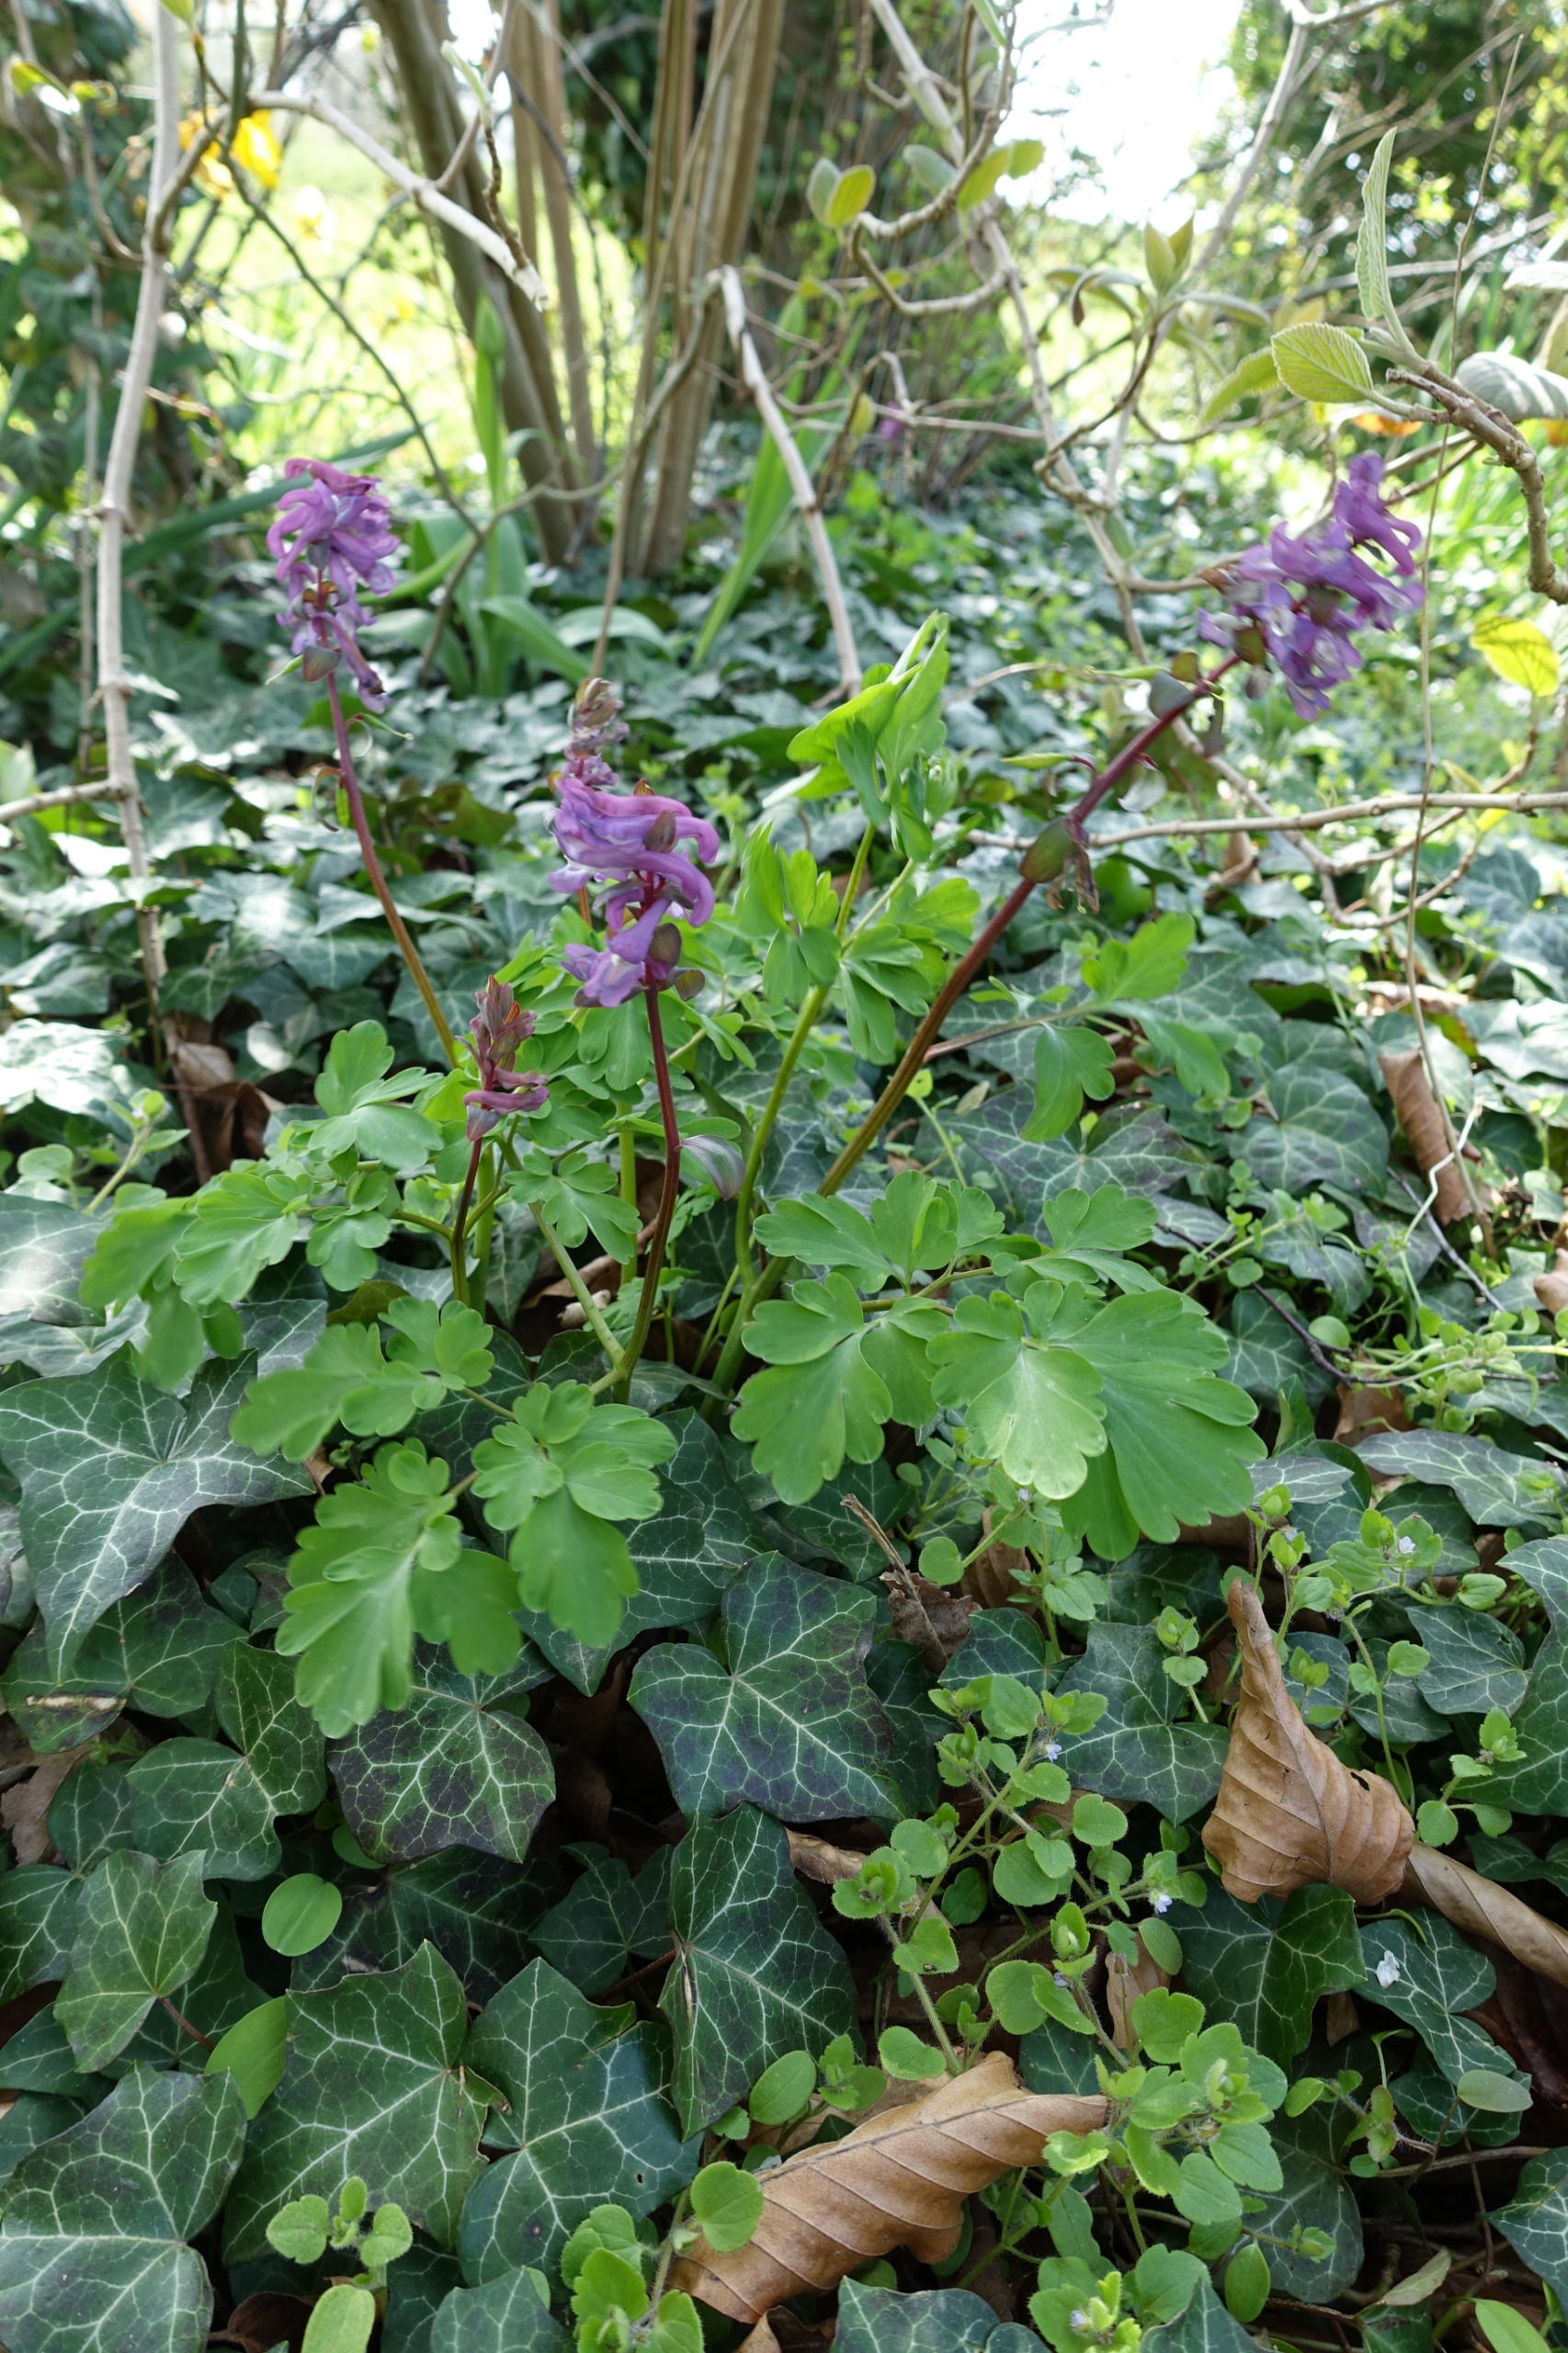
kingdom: Plantae
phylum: Tracheophyta
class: Magnoliopsida
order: Ranunculales
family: Papaveraceae
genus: Corydalis
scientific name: Corydalis cava
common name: Hulrodet lærkespore
